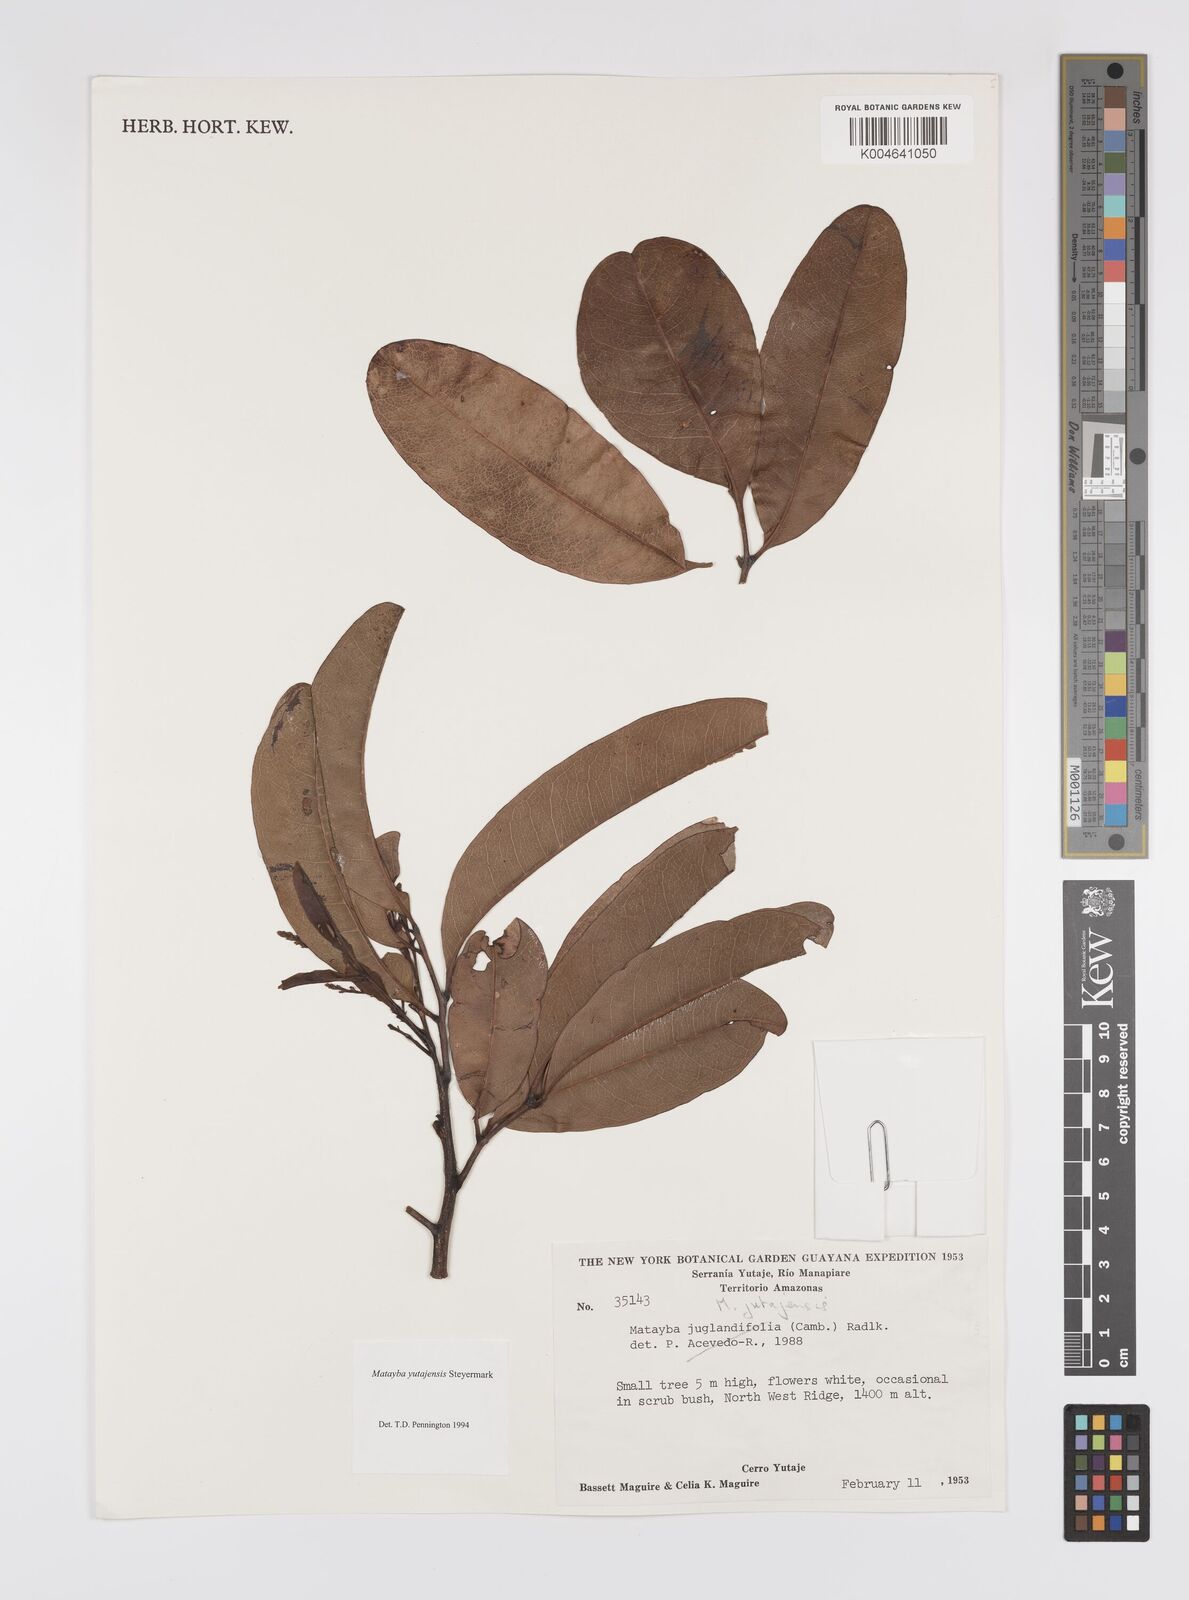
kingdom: Plantae
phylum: Tracheophyta
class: Magnoliopsida
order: Sapindales
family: Sapindaceae
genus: Matayba
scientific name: Matayba yutajensis
